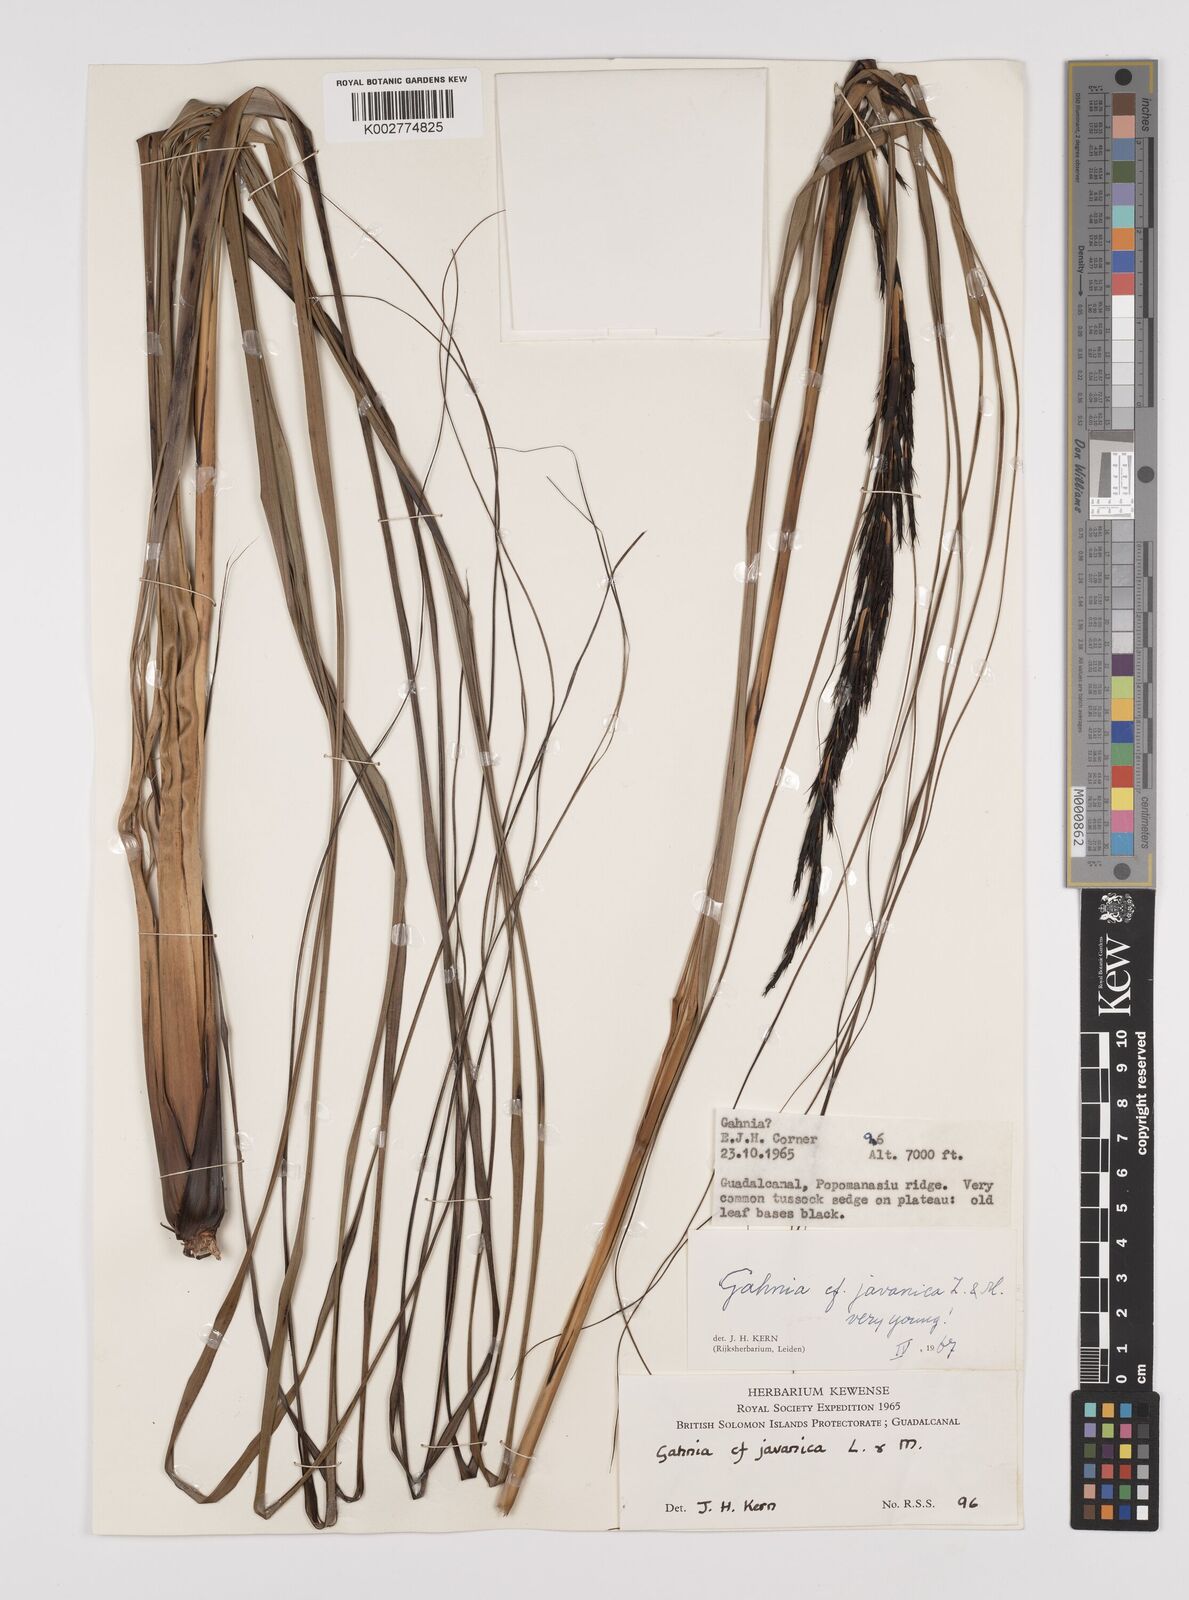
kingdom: Plantae
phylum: Tracheophyta
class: Liliopsida
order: Poales
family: Cyperaceae
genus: Gahnia
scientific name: Gahnia javanica
